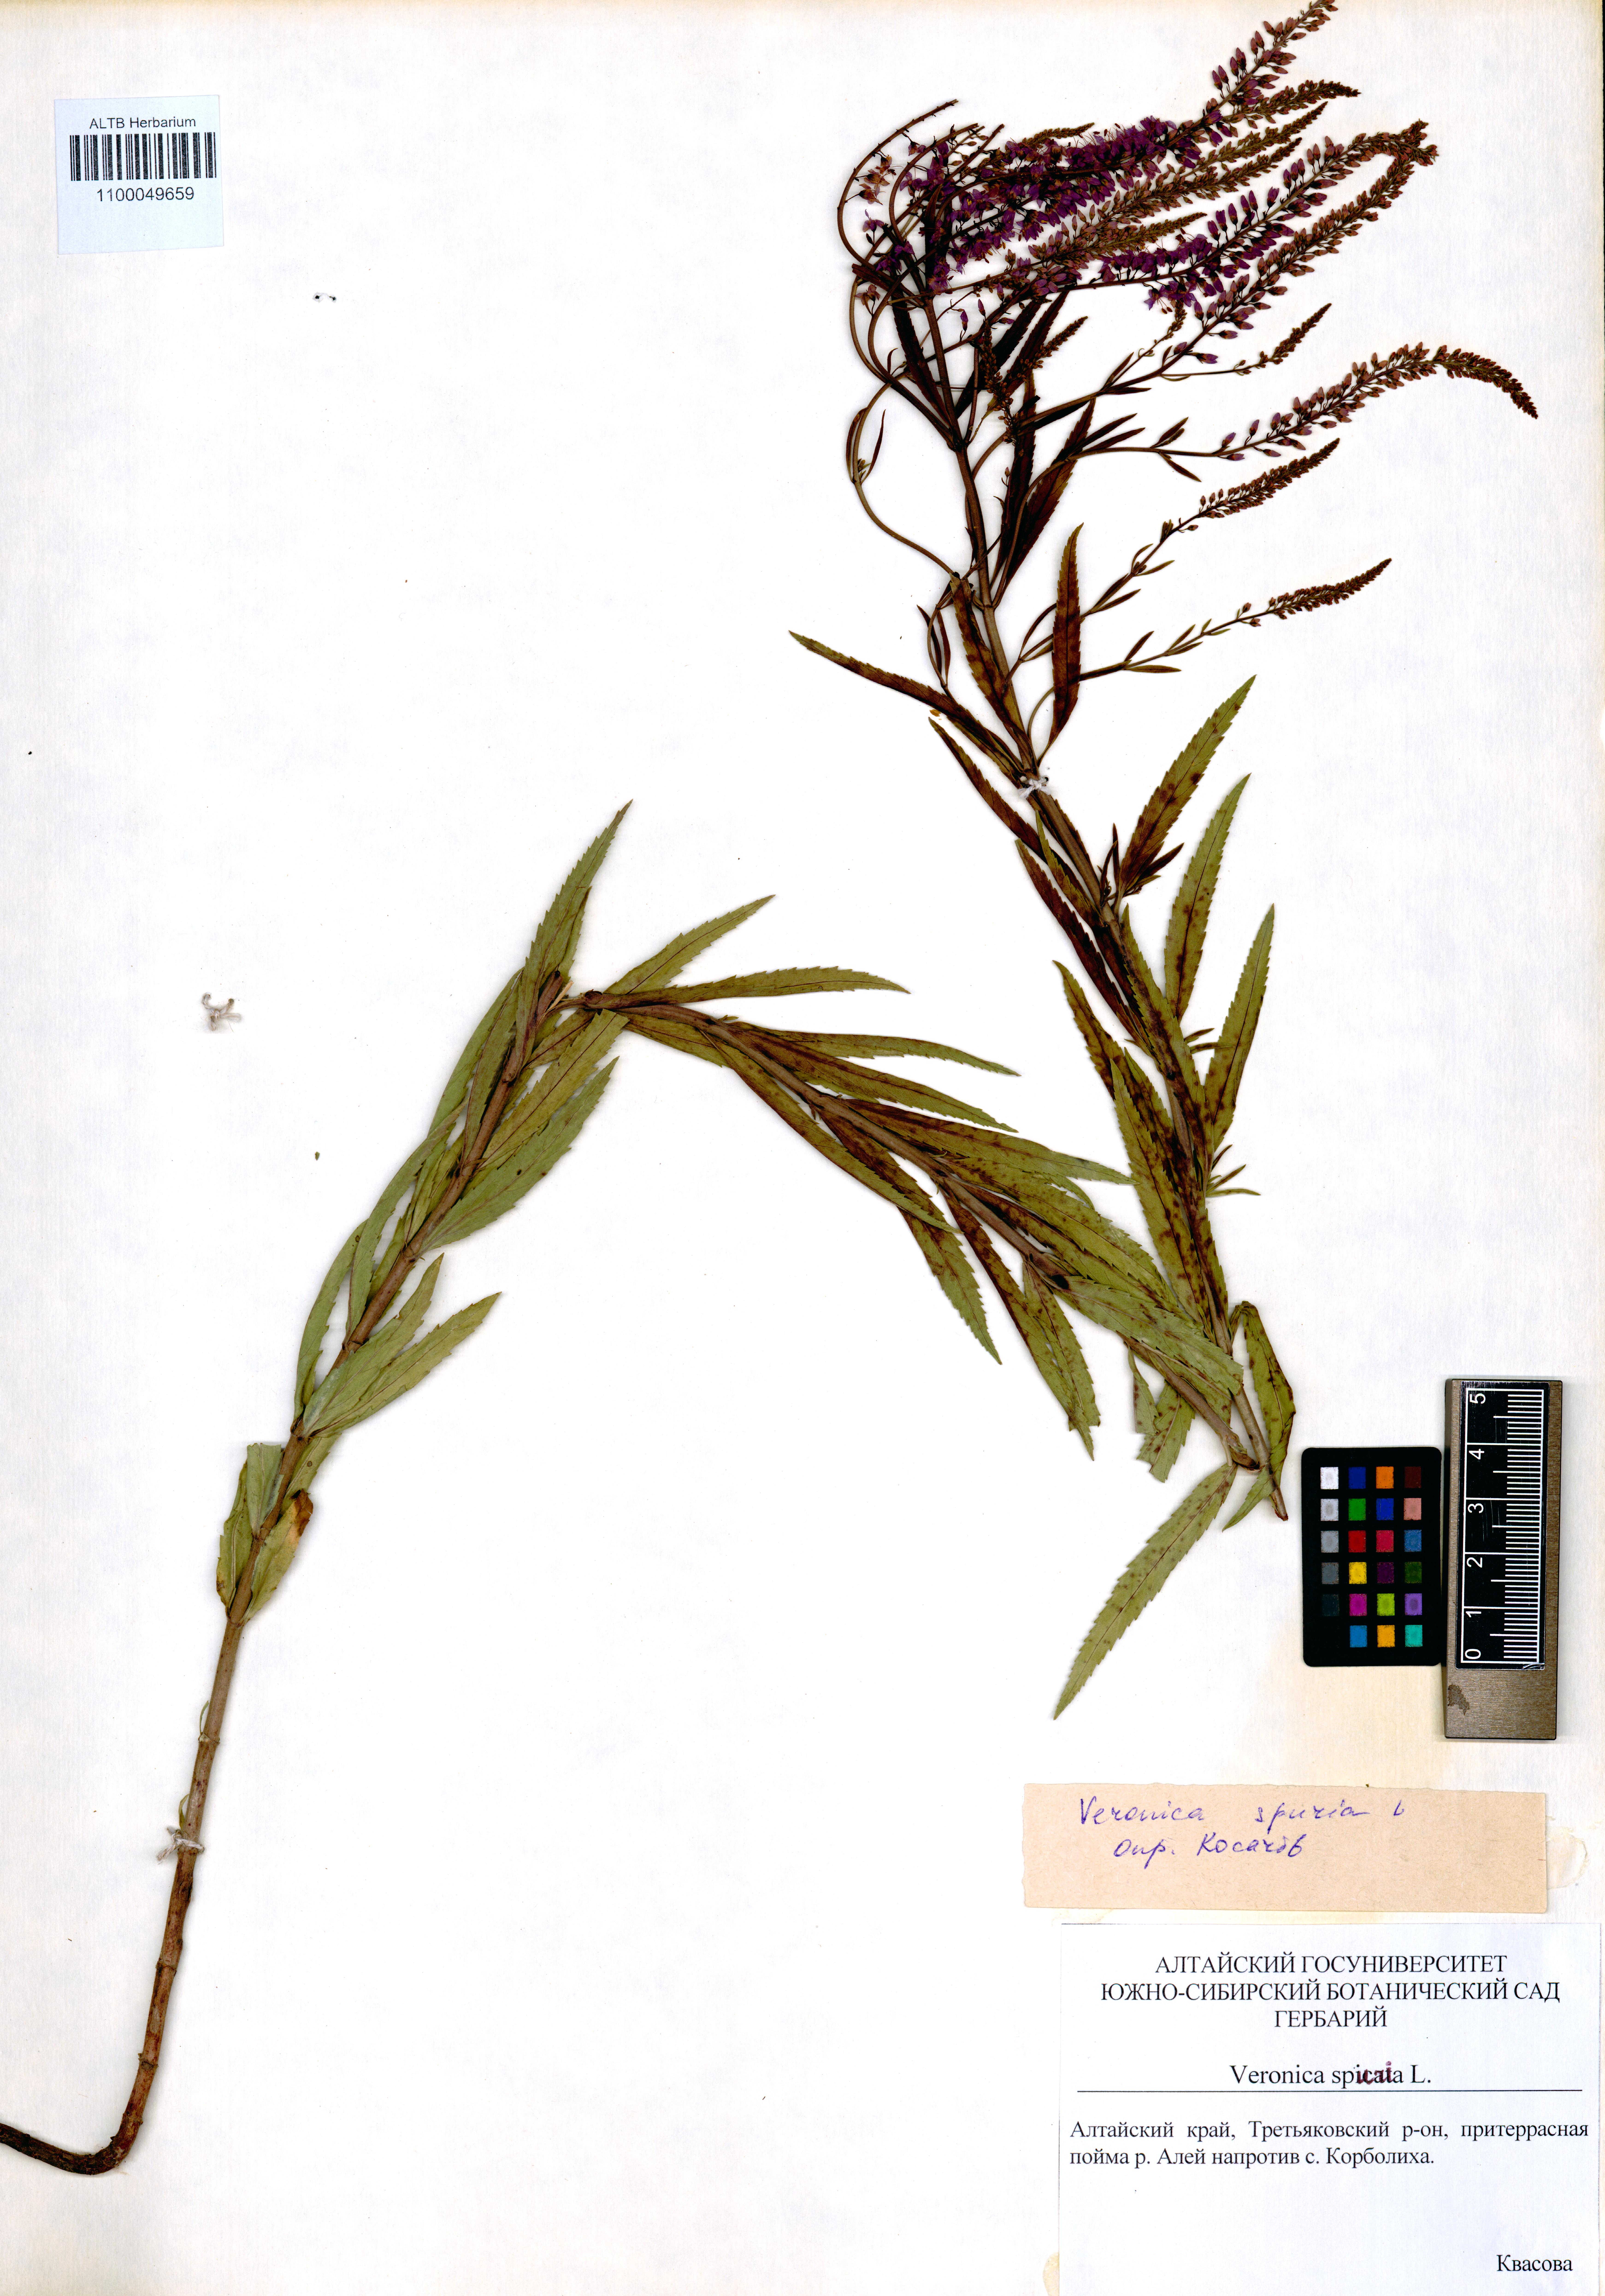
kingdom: Plantae
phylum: Tracheophyta
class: Magnoliopsida
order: Lamiales
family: Plantaginaceae
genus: Veronica
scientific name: Veronica spuria
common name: Bastard speedwell
